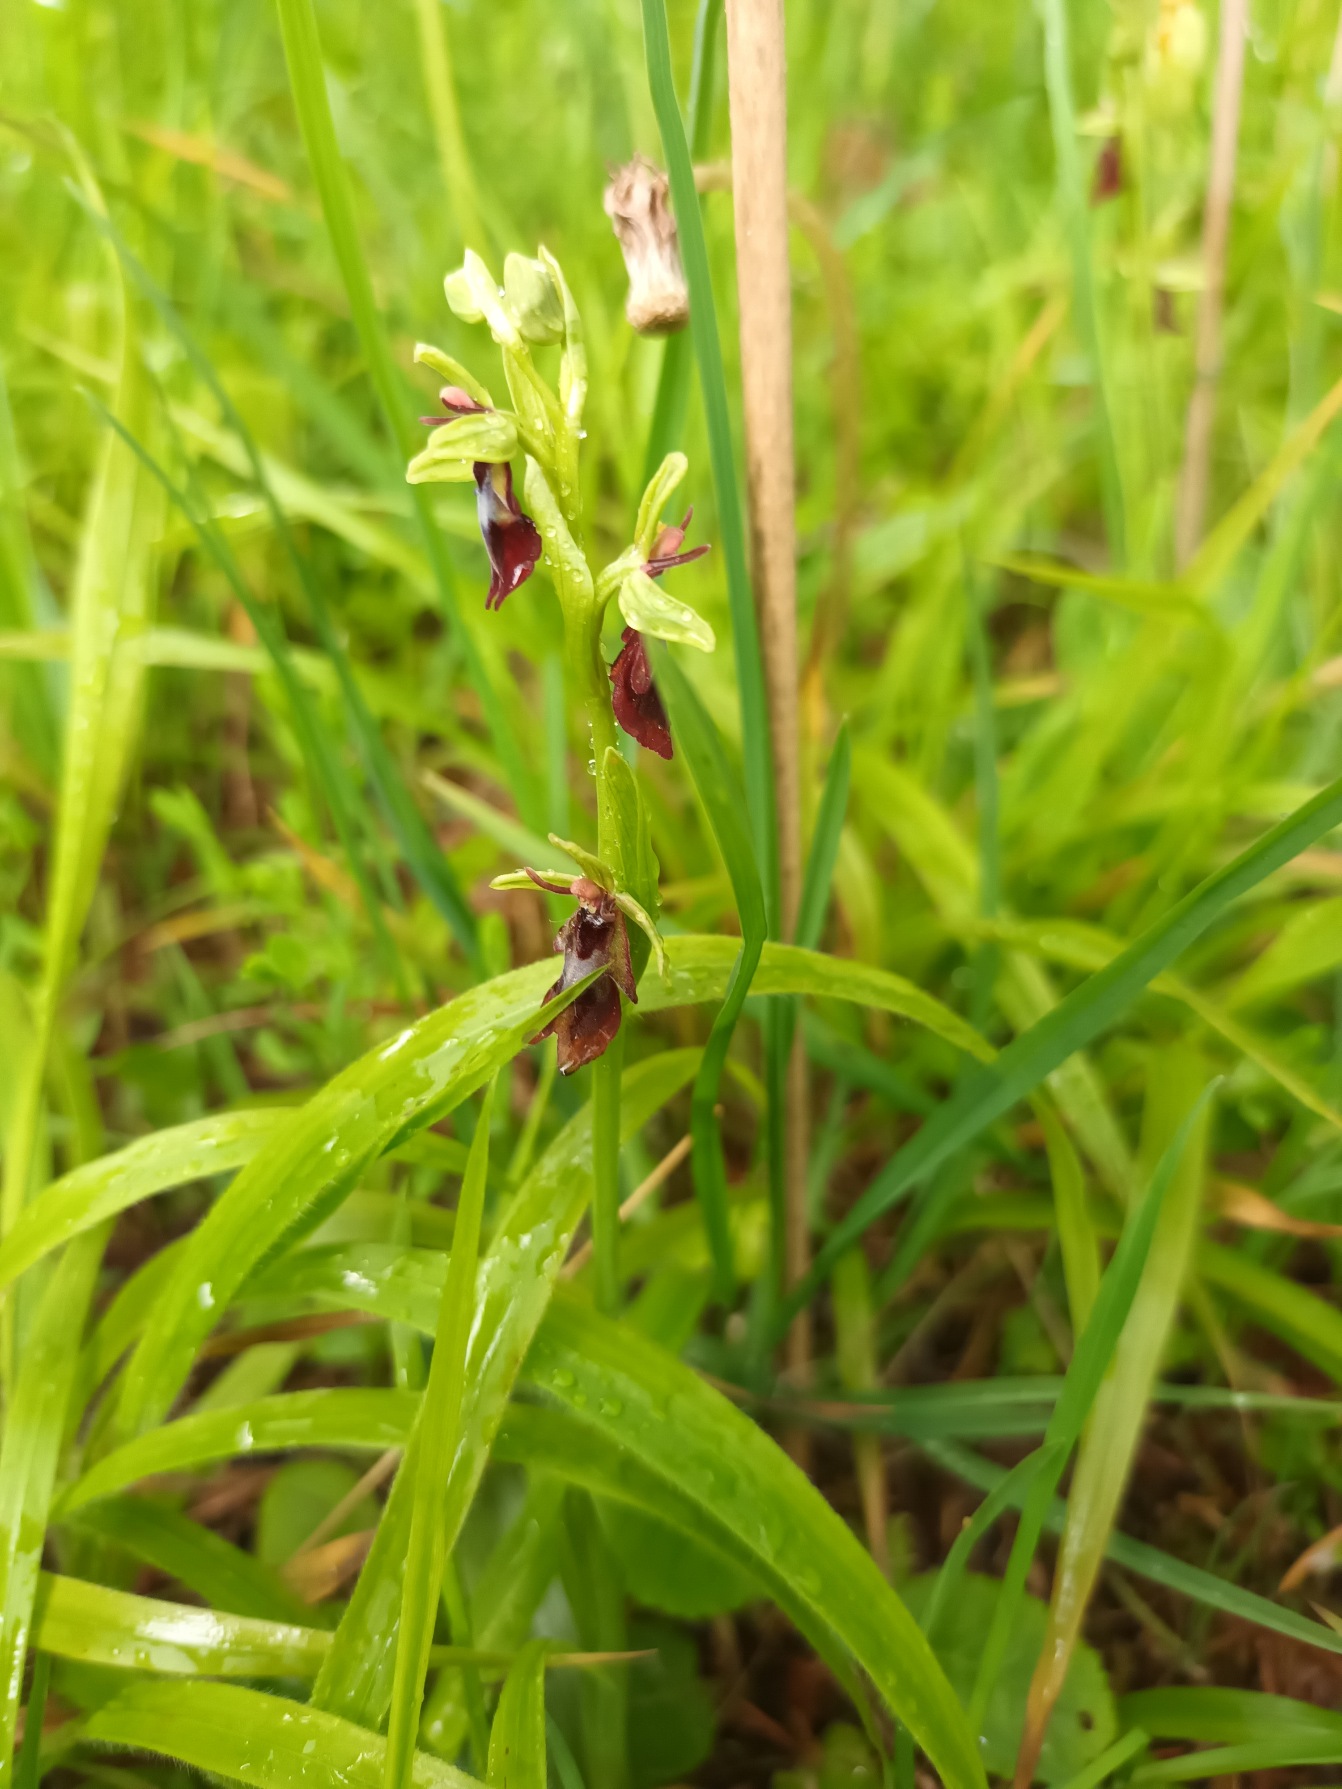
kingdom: Plantae
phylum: Tracheophyta
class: Liliopsida
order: Asparagales
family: Orchidaceae
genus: Ophrys
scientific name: Ophrys insectifera
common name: Flueblomst
